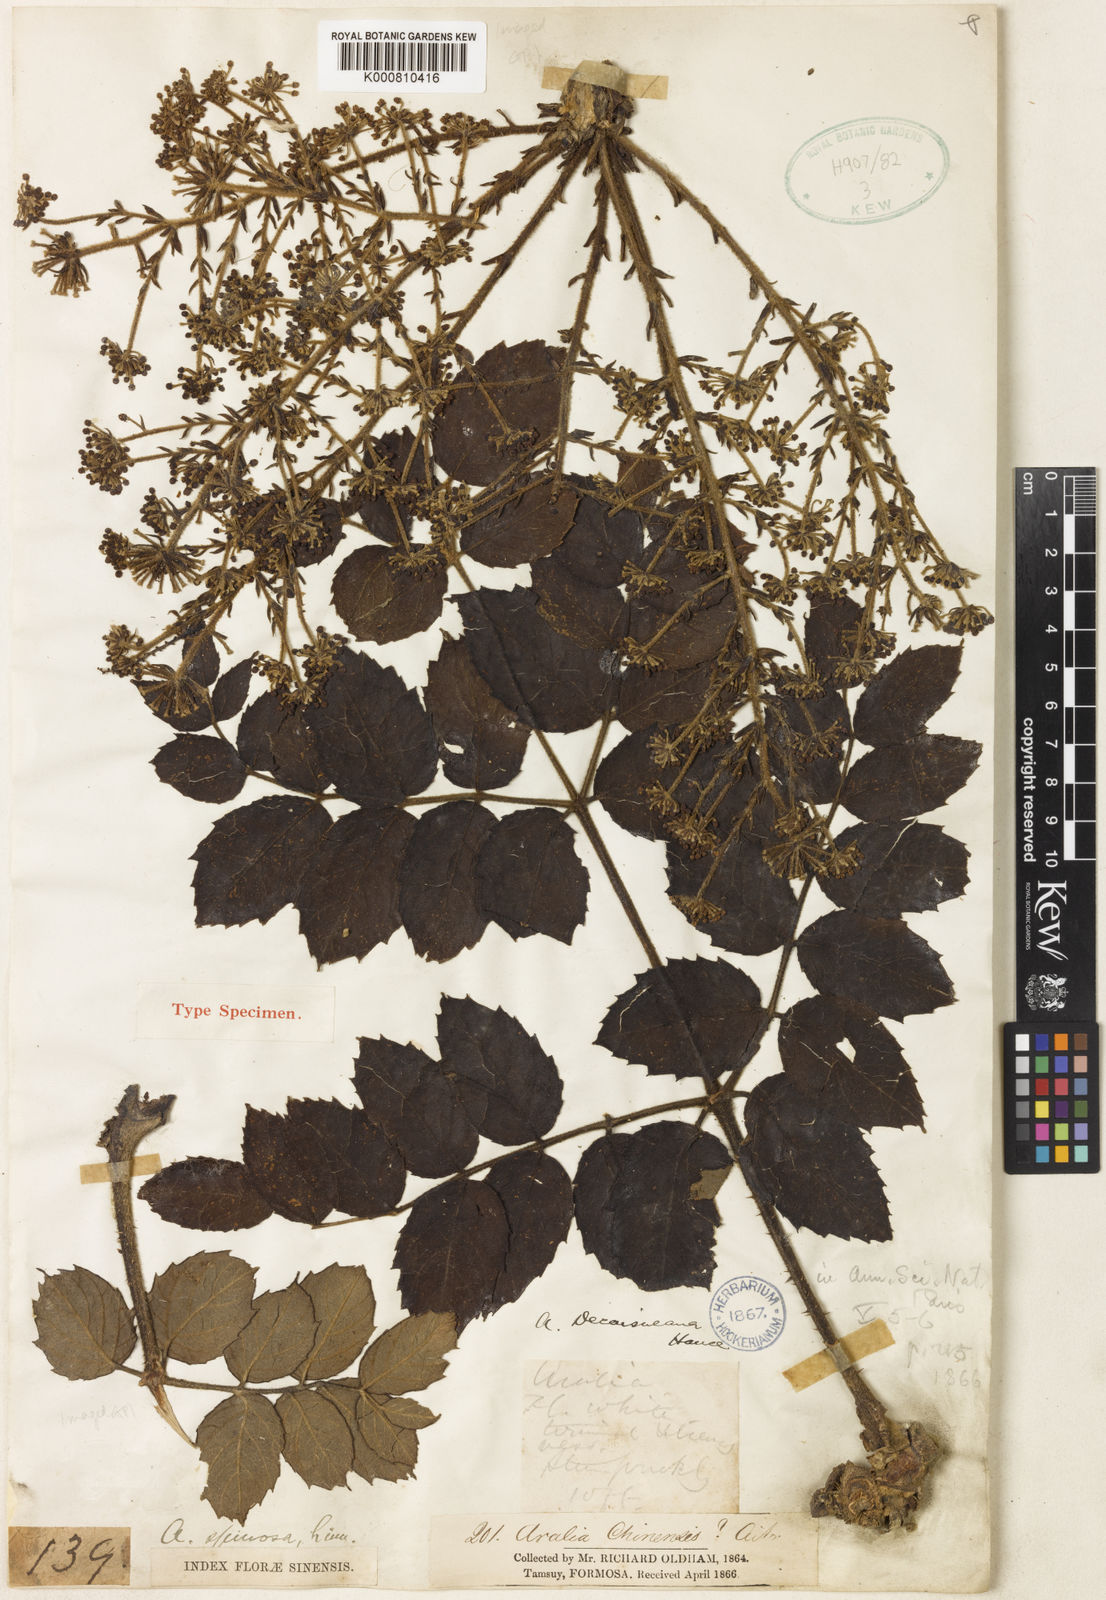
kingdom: Plantae
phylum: Tracheophyta
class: Magnoliopsida
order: Apiales
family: Araliaceae
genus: Aralia
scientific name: Aralia decaisneana
